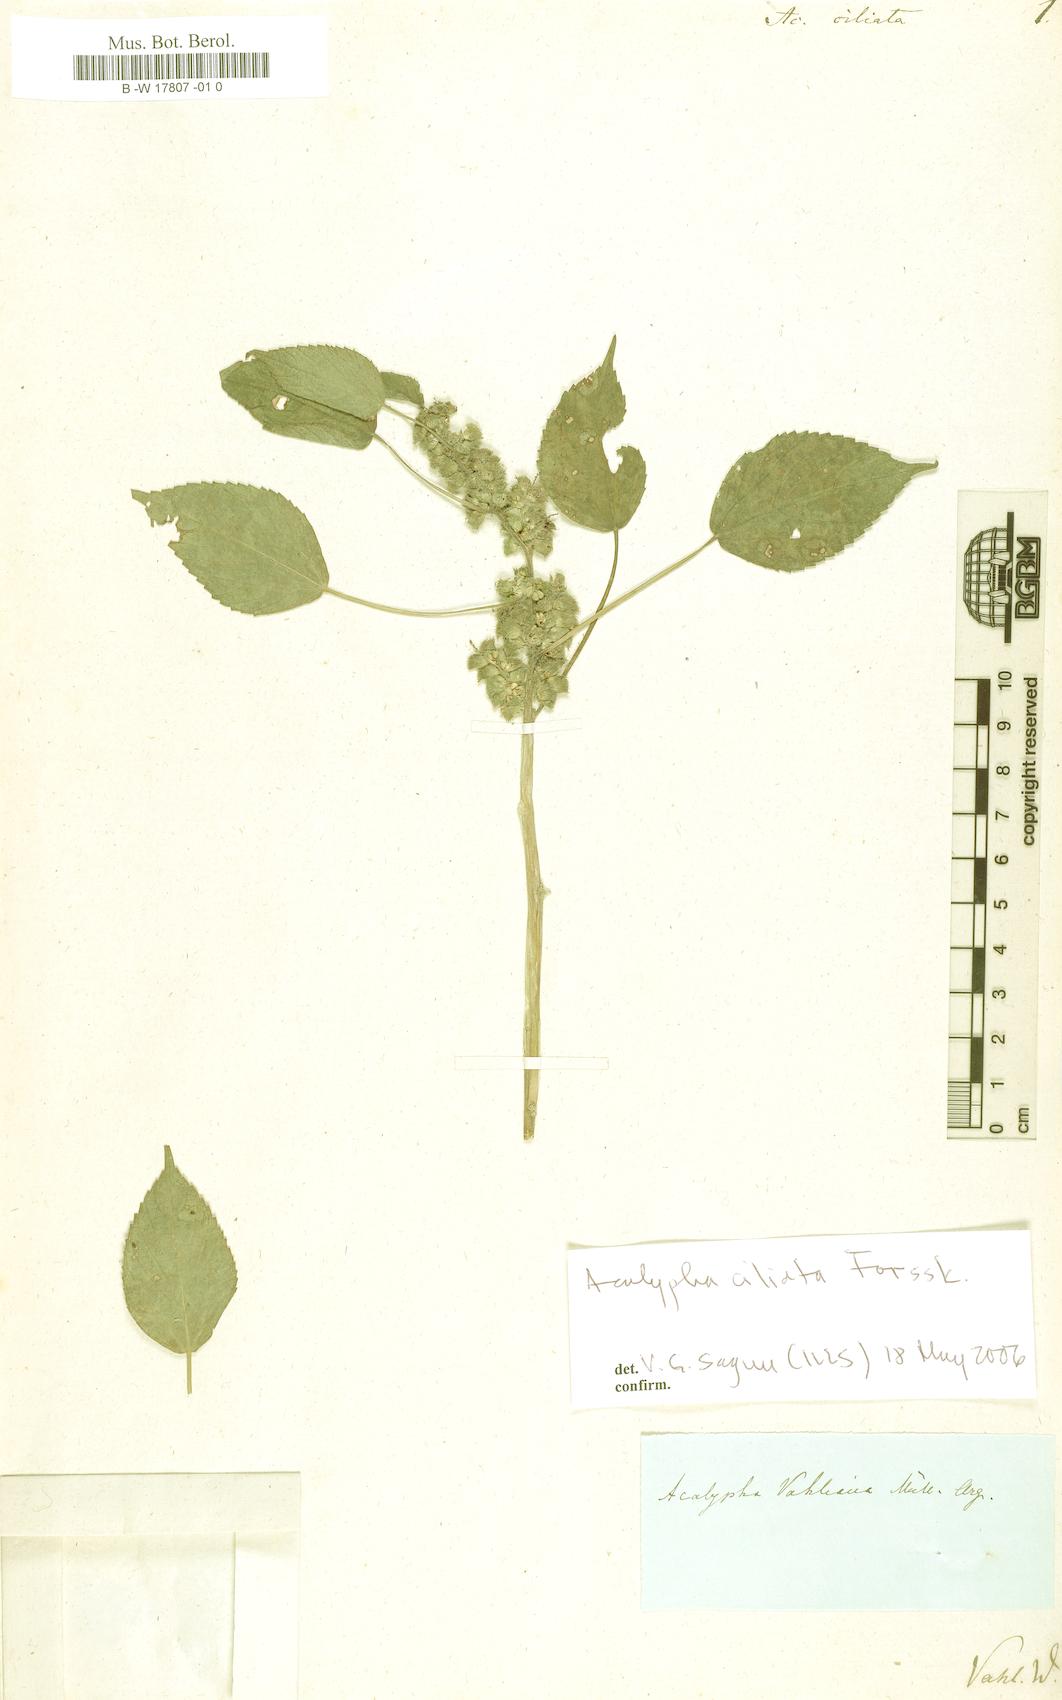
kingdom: Plantae
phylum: Tracheophyta
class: Magnoliopsida
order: Malpighiales
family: Euphorbiaceae
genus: Acalypha
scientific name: Acalypha ciliata
